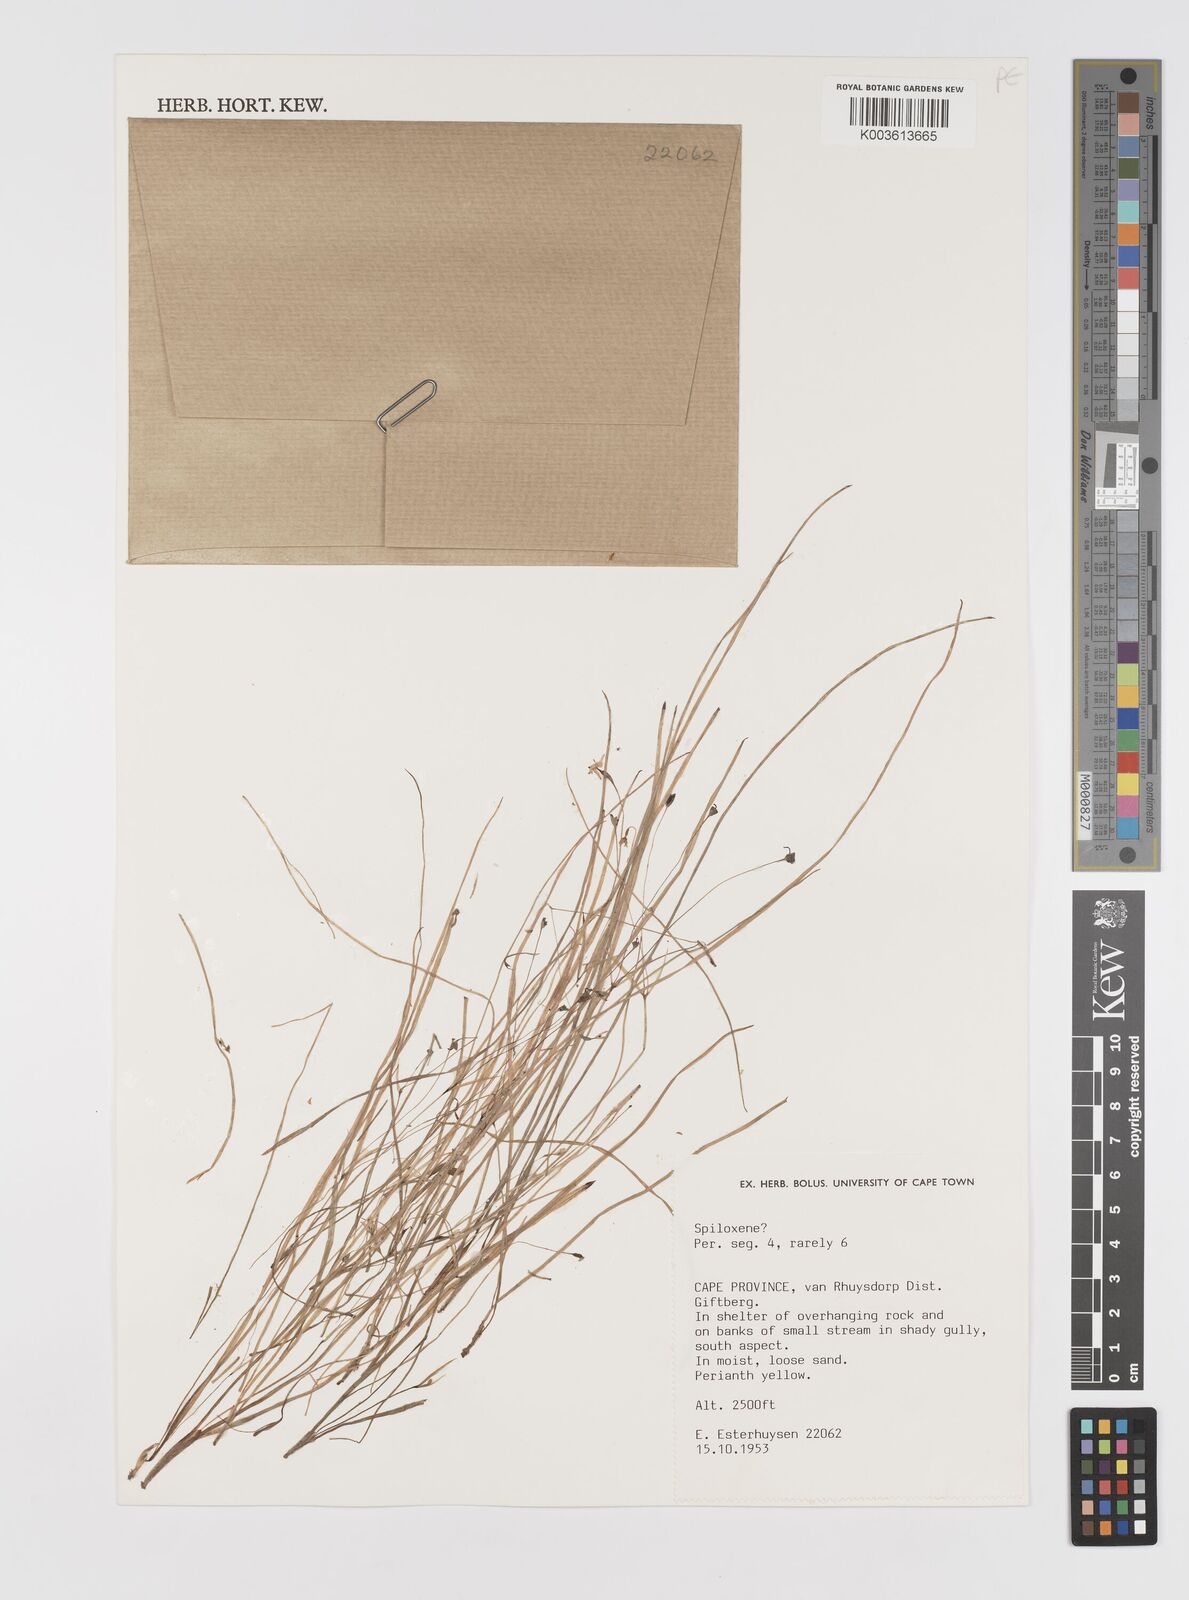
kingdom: Plantae
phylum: Tracheophyta
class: Liliopsida
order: Asparagales
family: Hypoxidaceae
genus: Pauridia
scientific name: Pauridia
